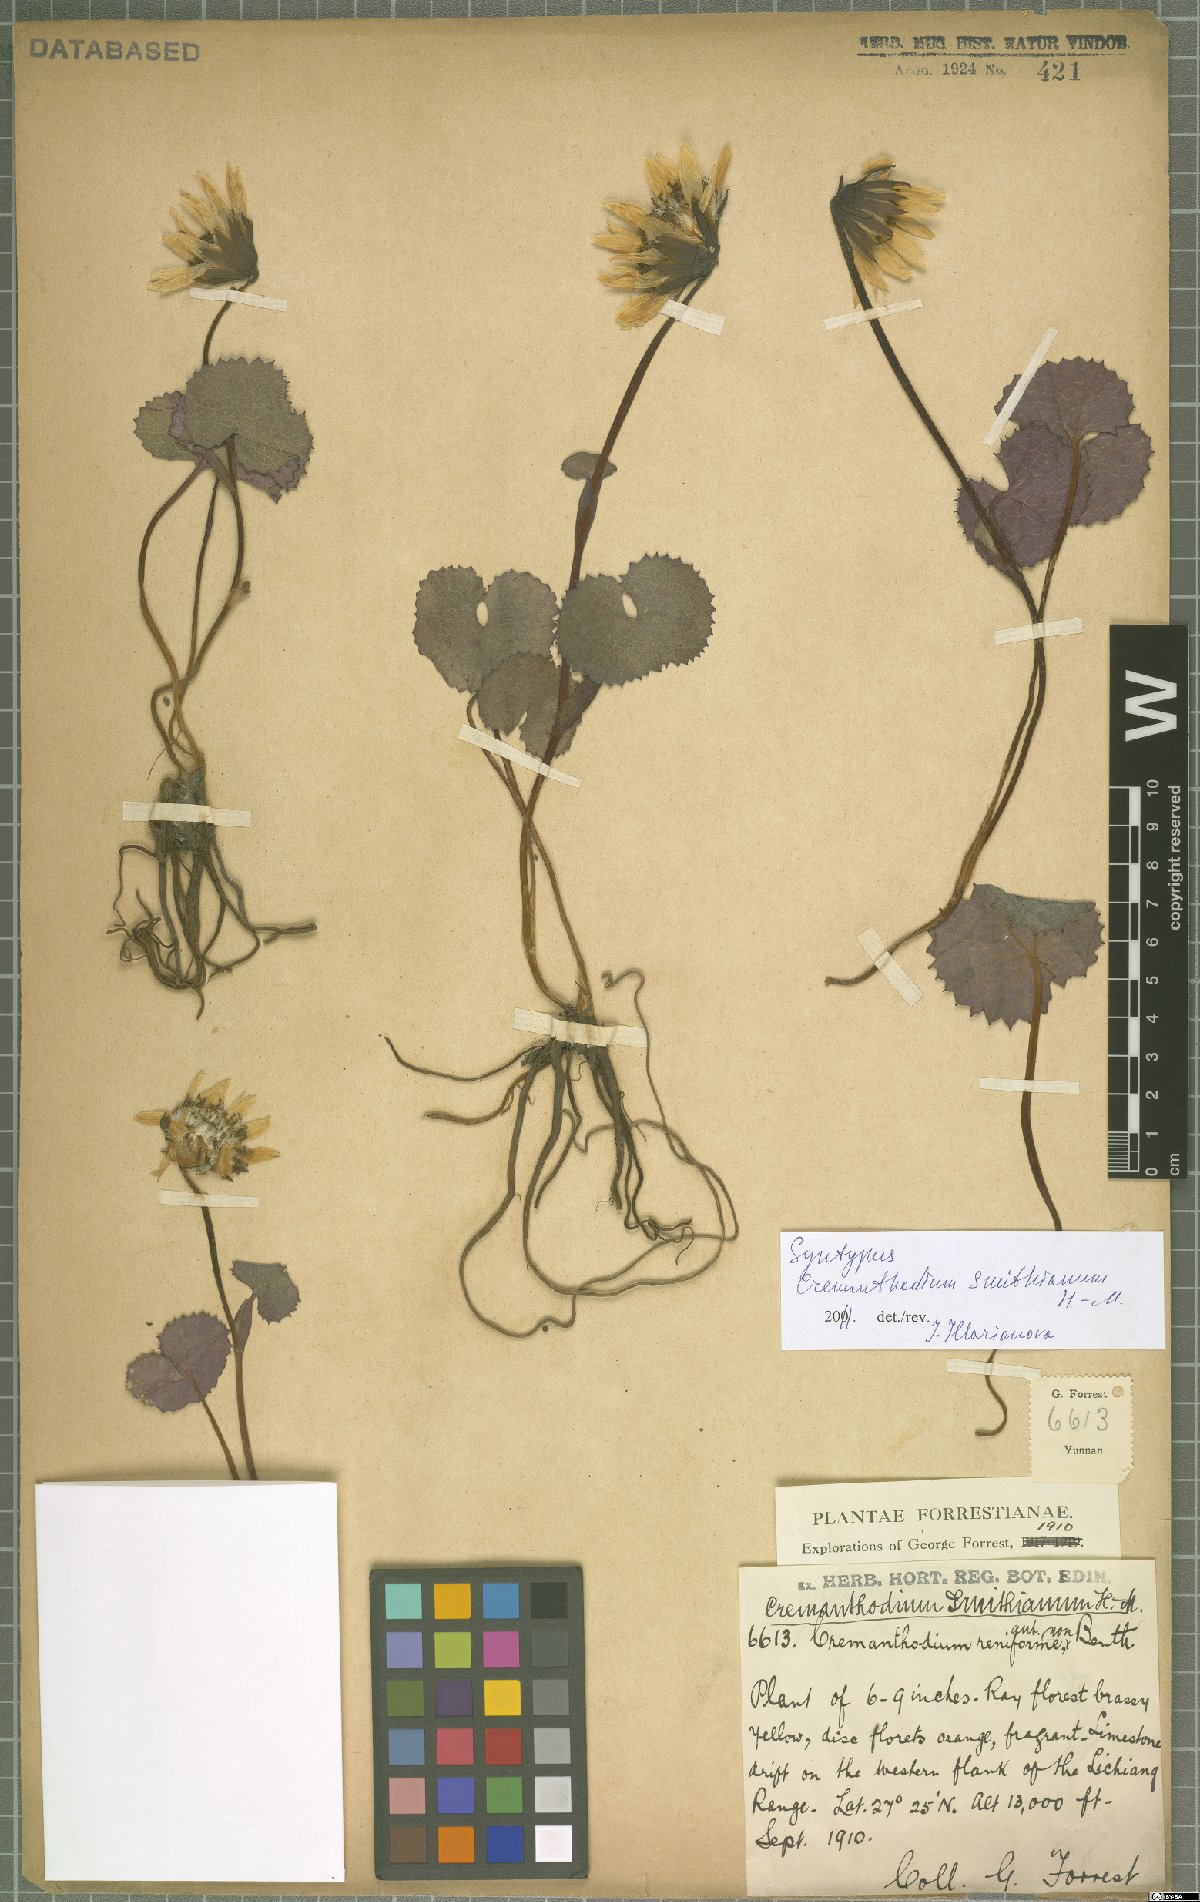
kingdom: Plantae
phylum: Tracheophyta
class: Magnoliopsida
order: Asterales
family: Asteraceae
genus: Cremanthodium
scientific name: Cremanthodium smithianum
